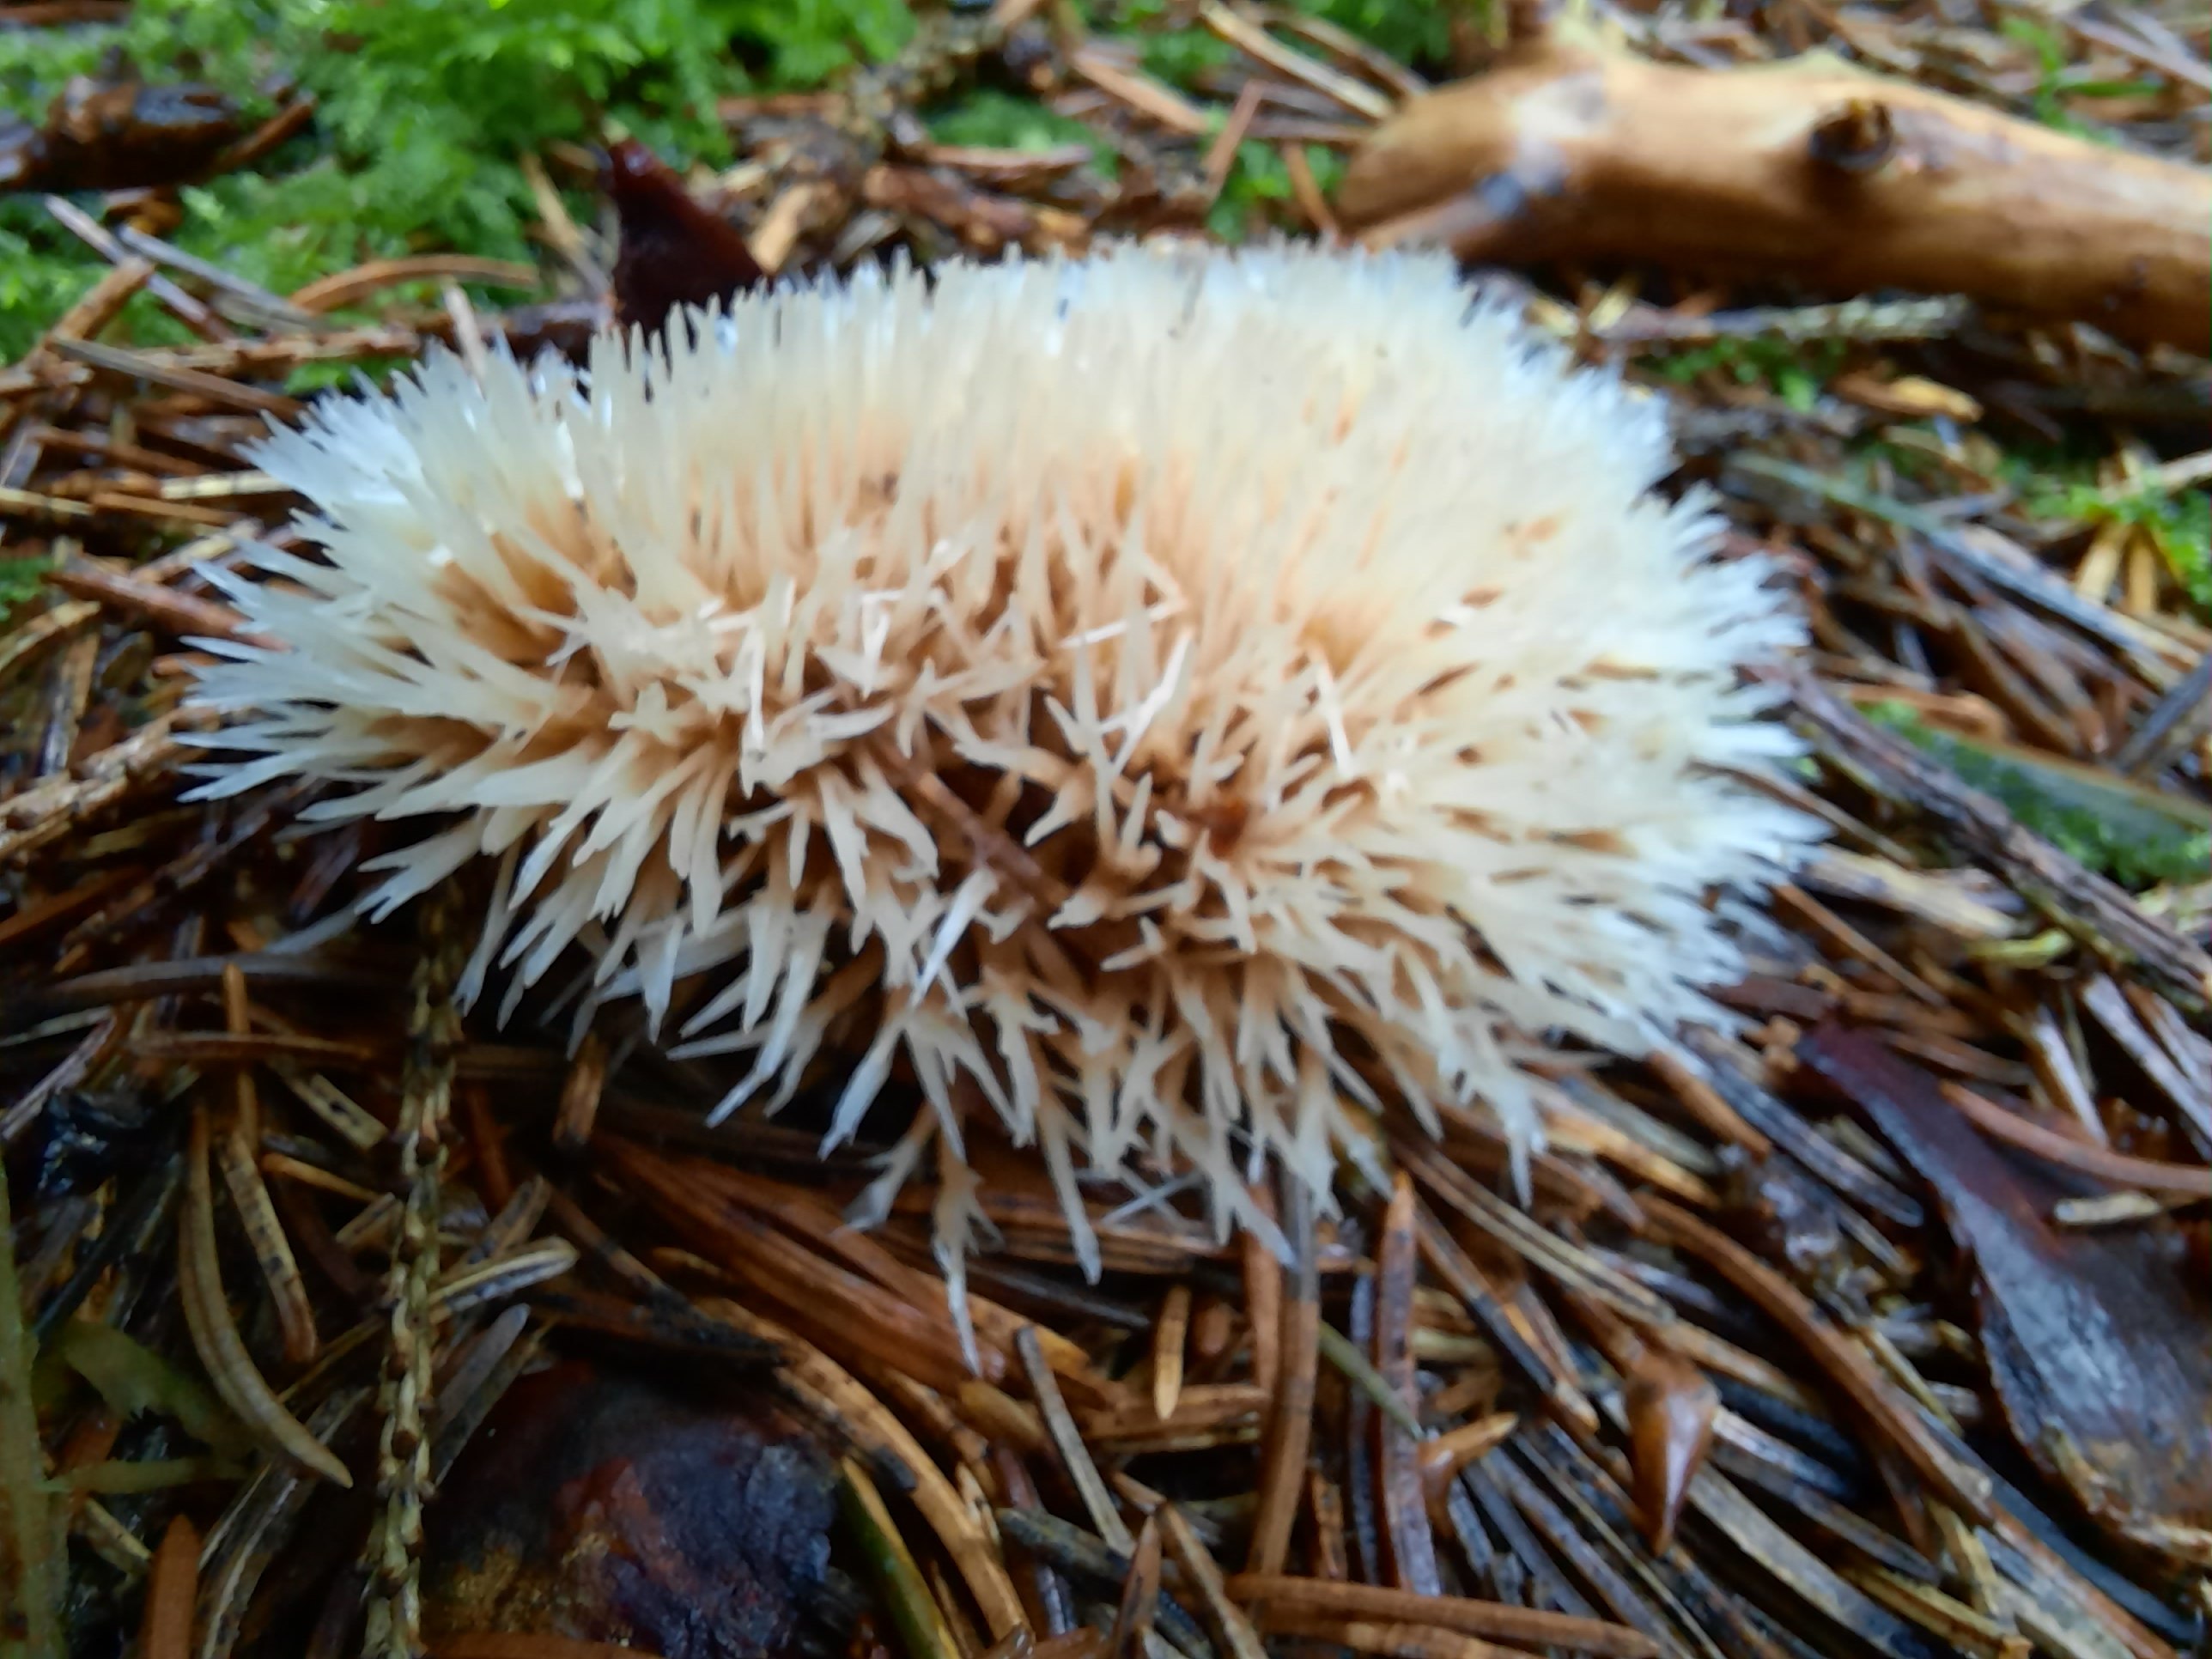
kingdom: Fungi
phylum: Basidiomycota
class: Agaricomycetes
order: Agaricales
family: Pterulaceae
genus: Pterula
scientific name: Pterula multifida
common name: busket fjerkølle
